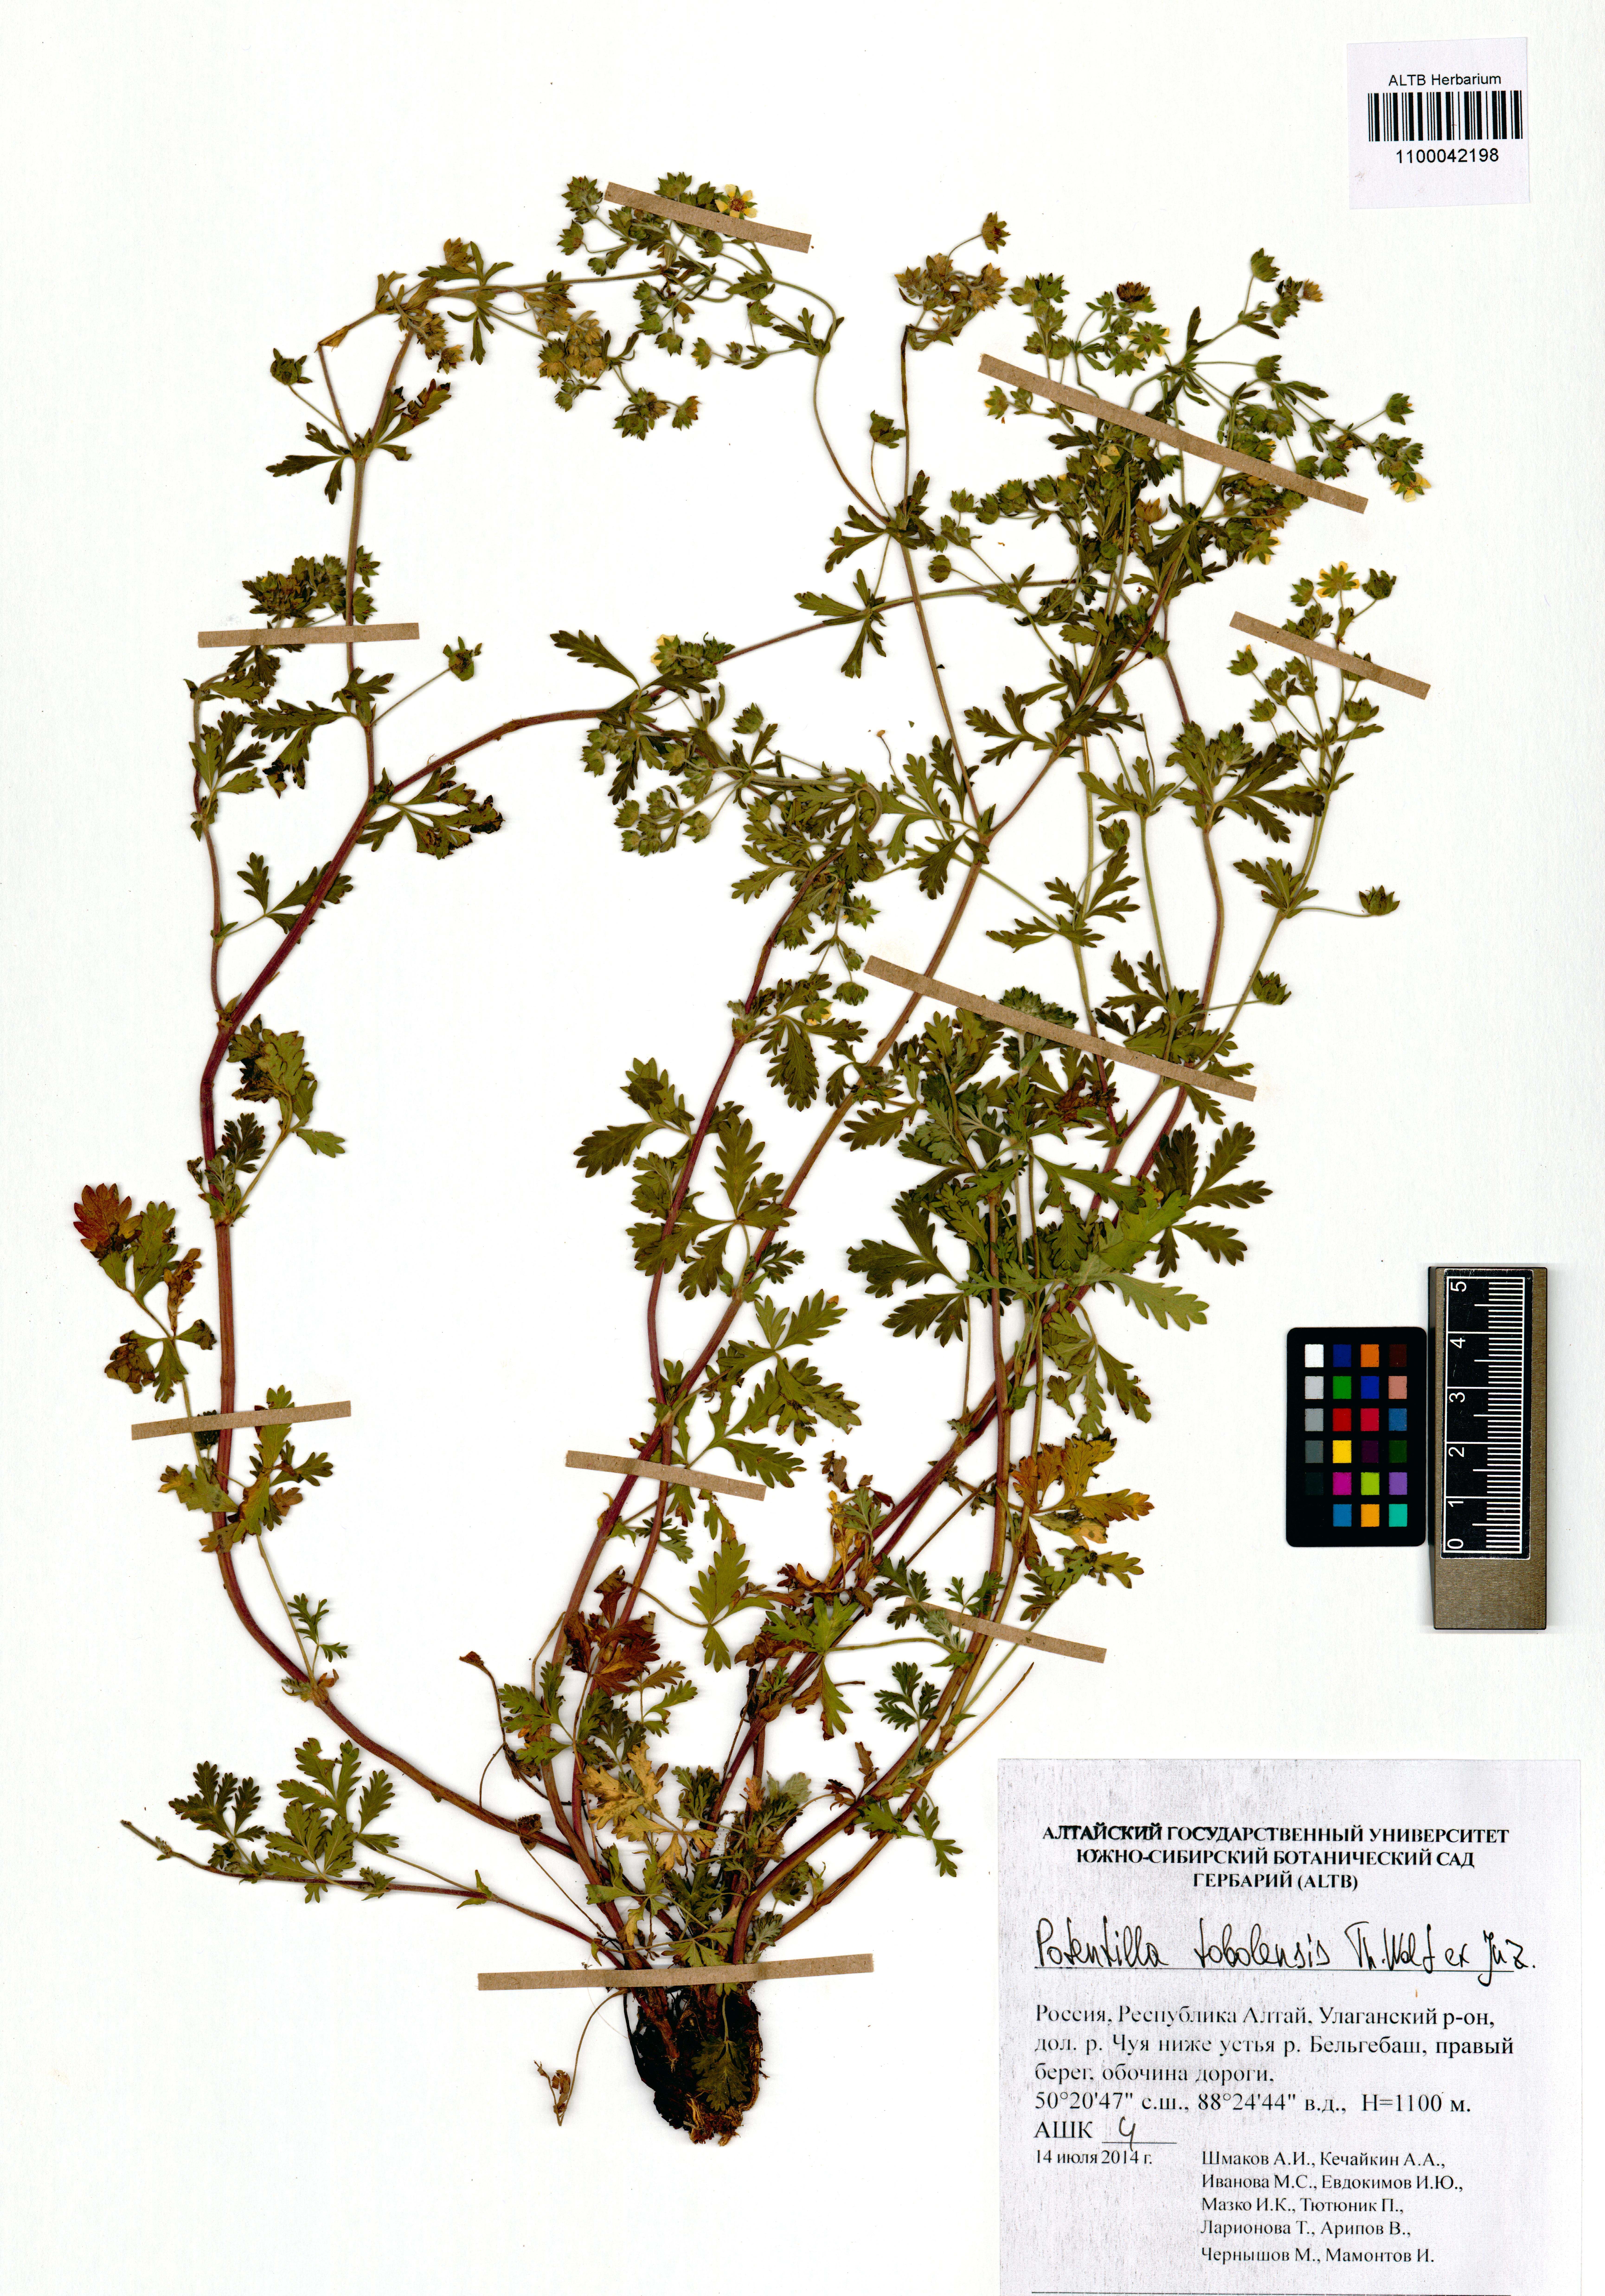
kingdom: Plantae
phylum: Tracheophyta
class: Magnoliopsida
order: Rosales
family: Rosaceae
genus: Potentilla
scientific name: Potentilla tobolensis
